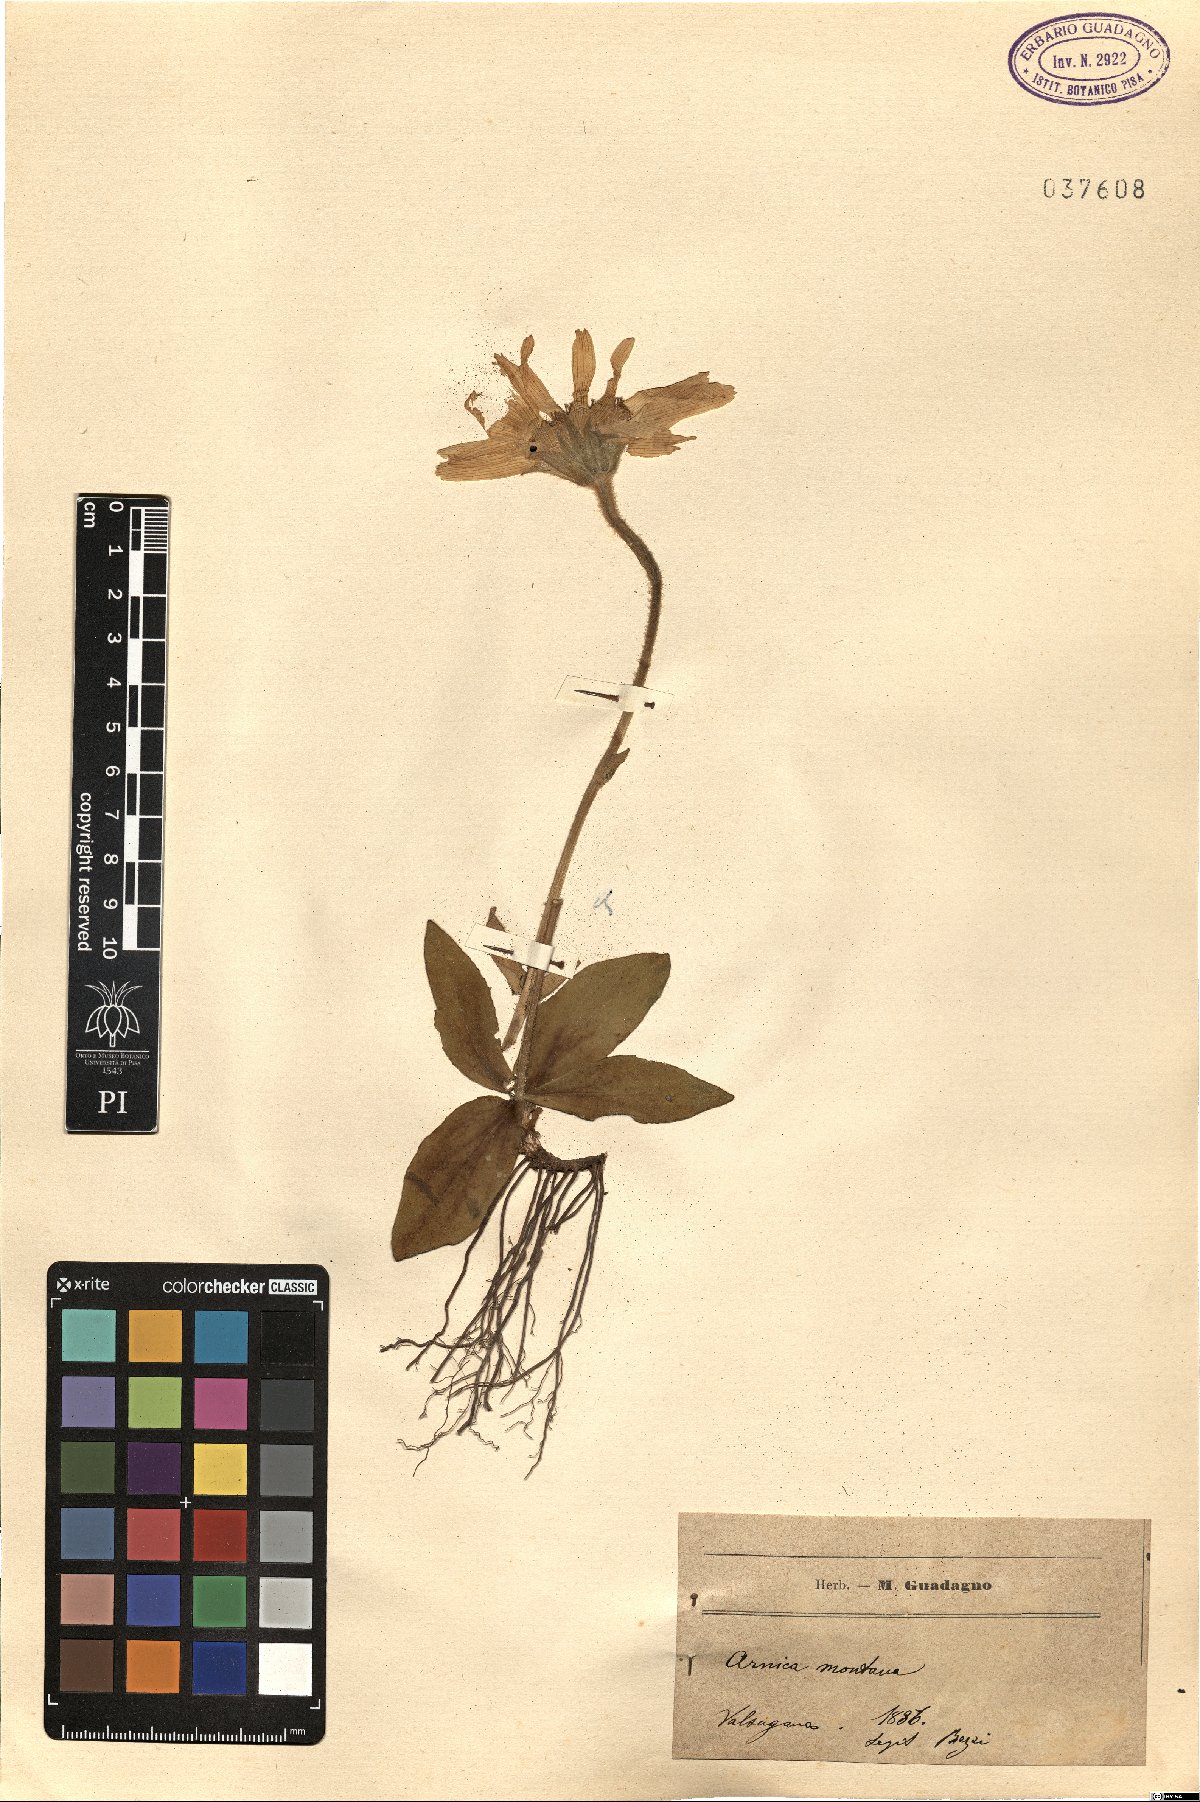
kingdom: Plantae
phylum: Tracheophyta
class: Magnoliopsida
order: Asterales
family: Asteraceae
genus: Arnica
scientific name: Arnica montana
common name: Leopard's bane
